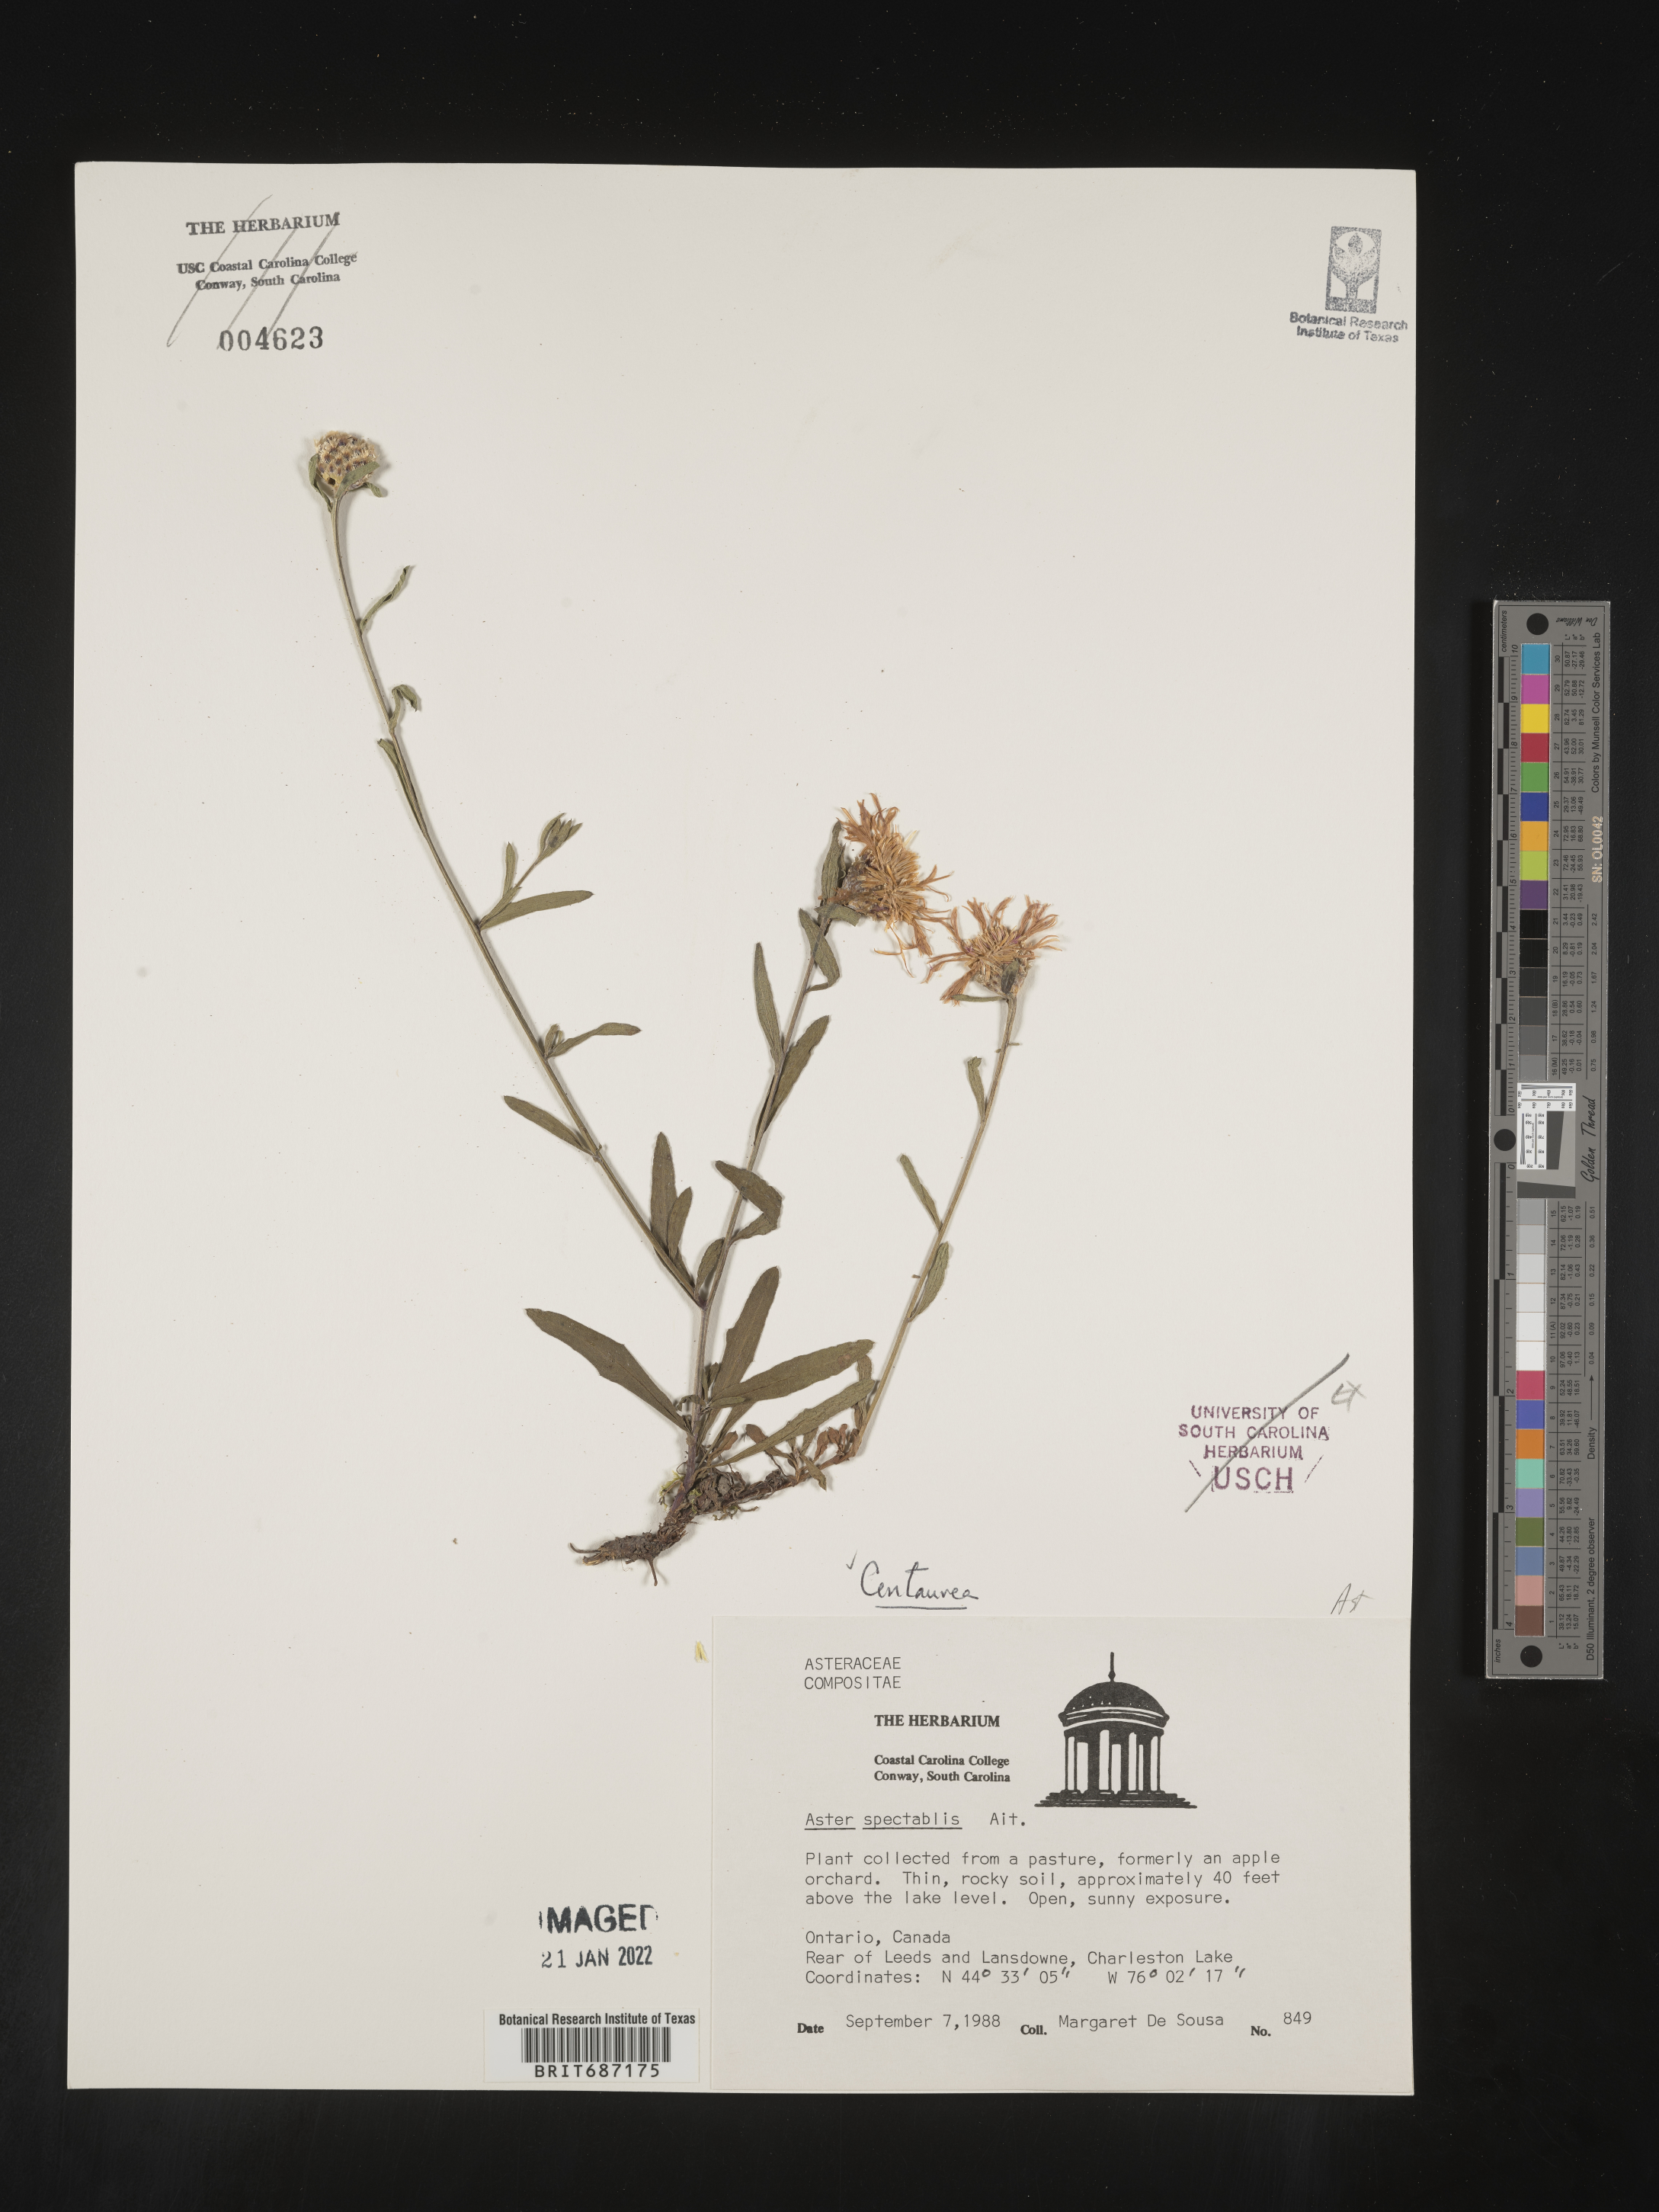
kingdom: Plantae
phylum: Tracheophyta
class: Magnoliopsida
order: Asterales
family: Asteraceae
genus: Centaurea
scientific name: Centaurea
